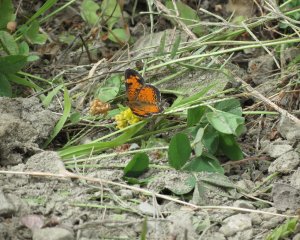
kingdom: Animalia
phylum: Arthropoda
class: Insecta
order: Lepidoptera
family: Nymphalidae
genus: Phyciodes
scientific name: Phyciodes tharos
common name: Northern Crescent
